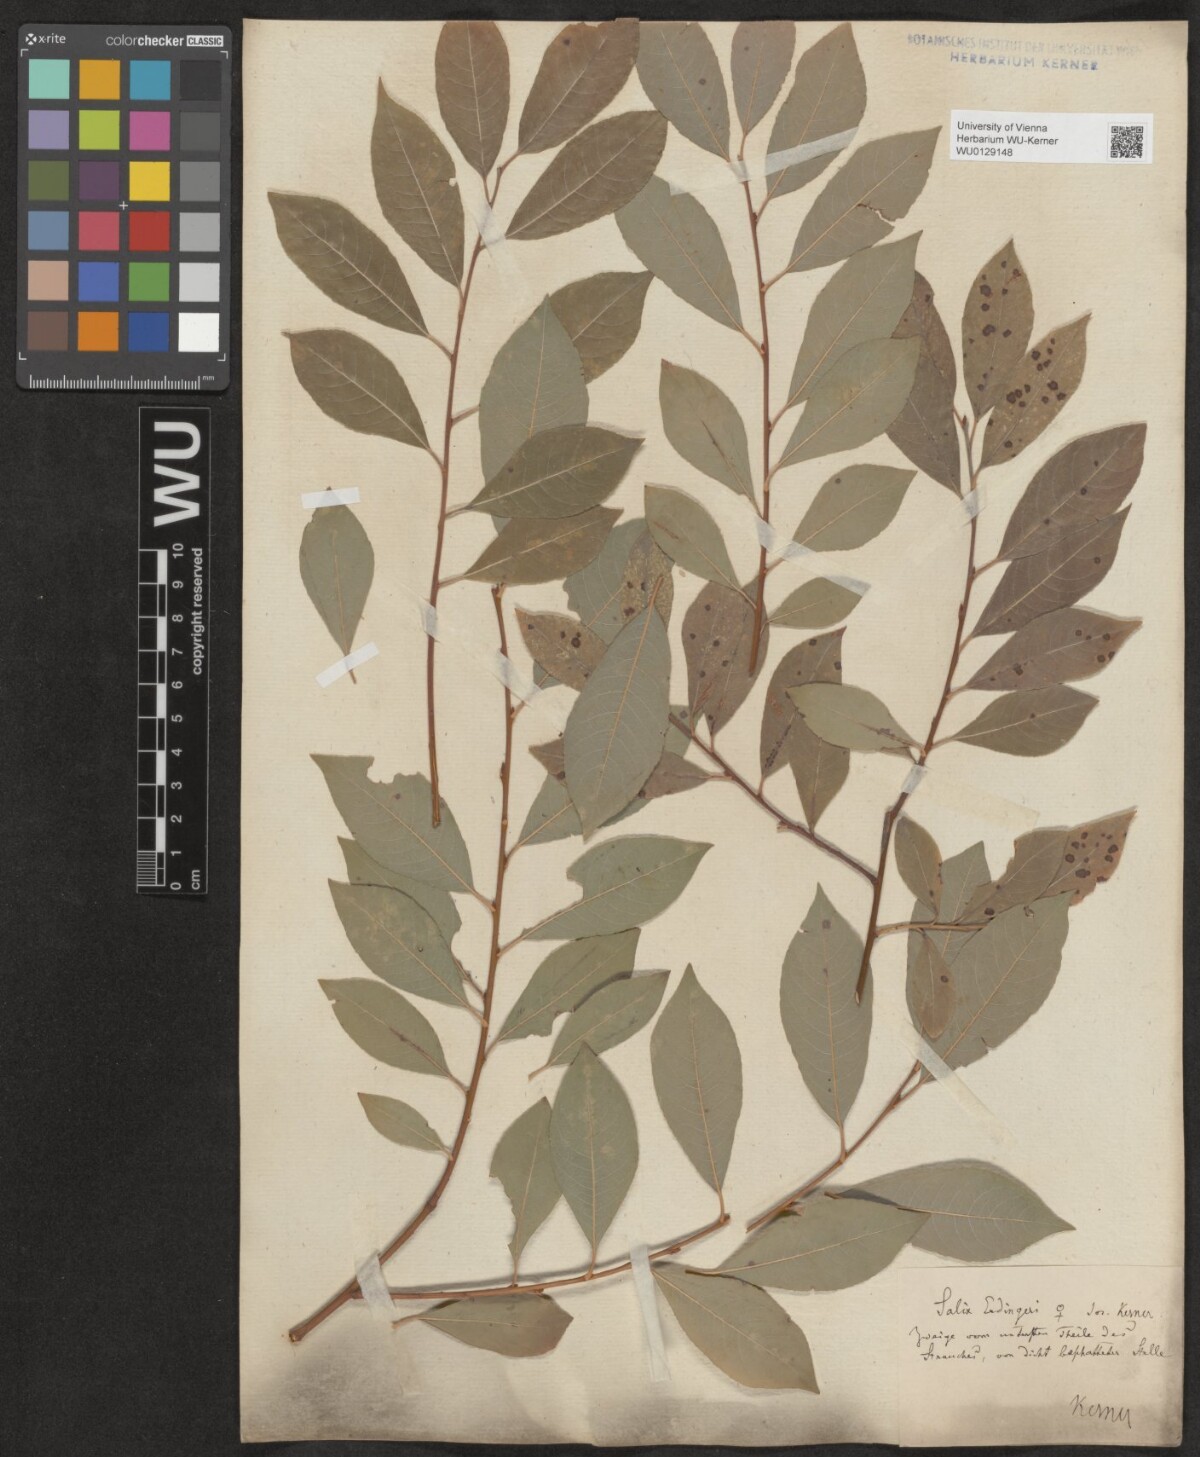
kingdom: Plantae
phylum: Tracheophyta
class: Magnoliopsida
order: Malpighiales
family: Salicaceae
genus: Salix
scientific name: Salix erdingeri
